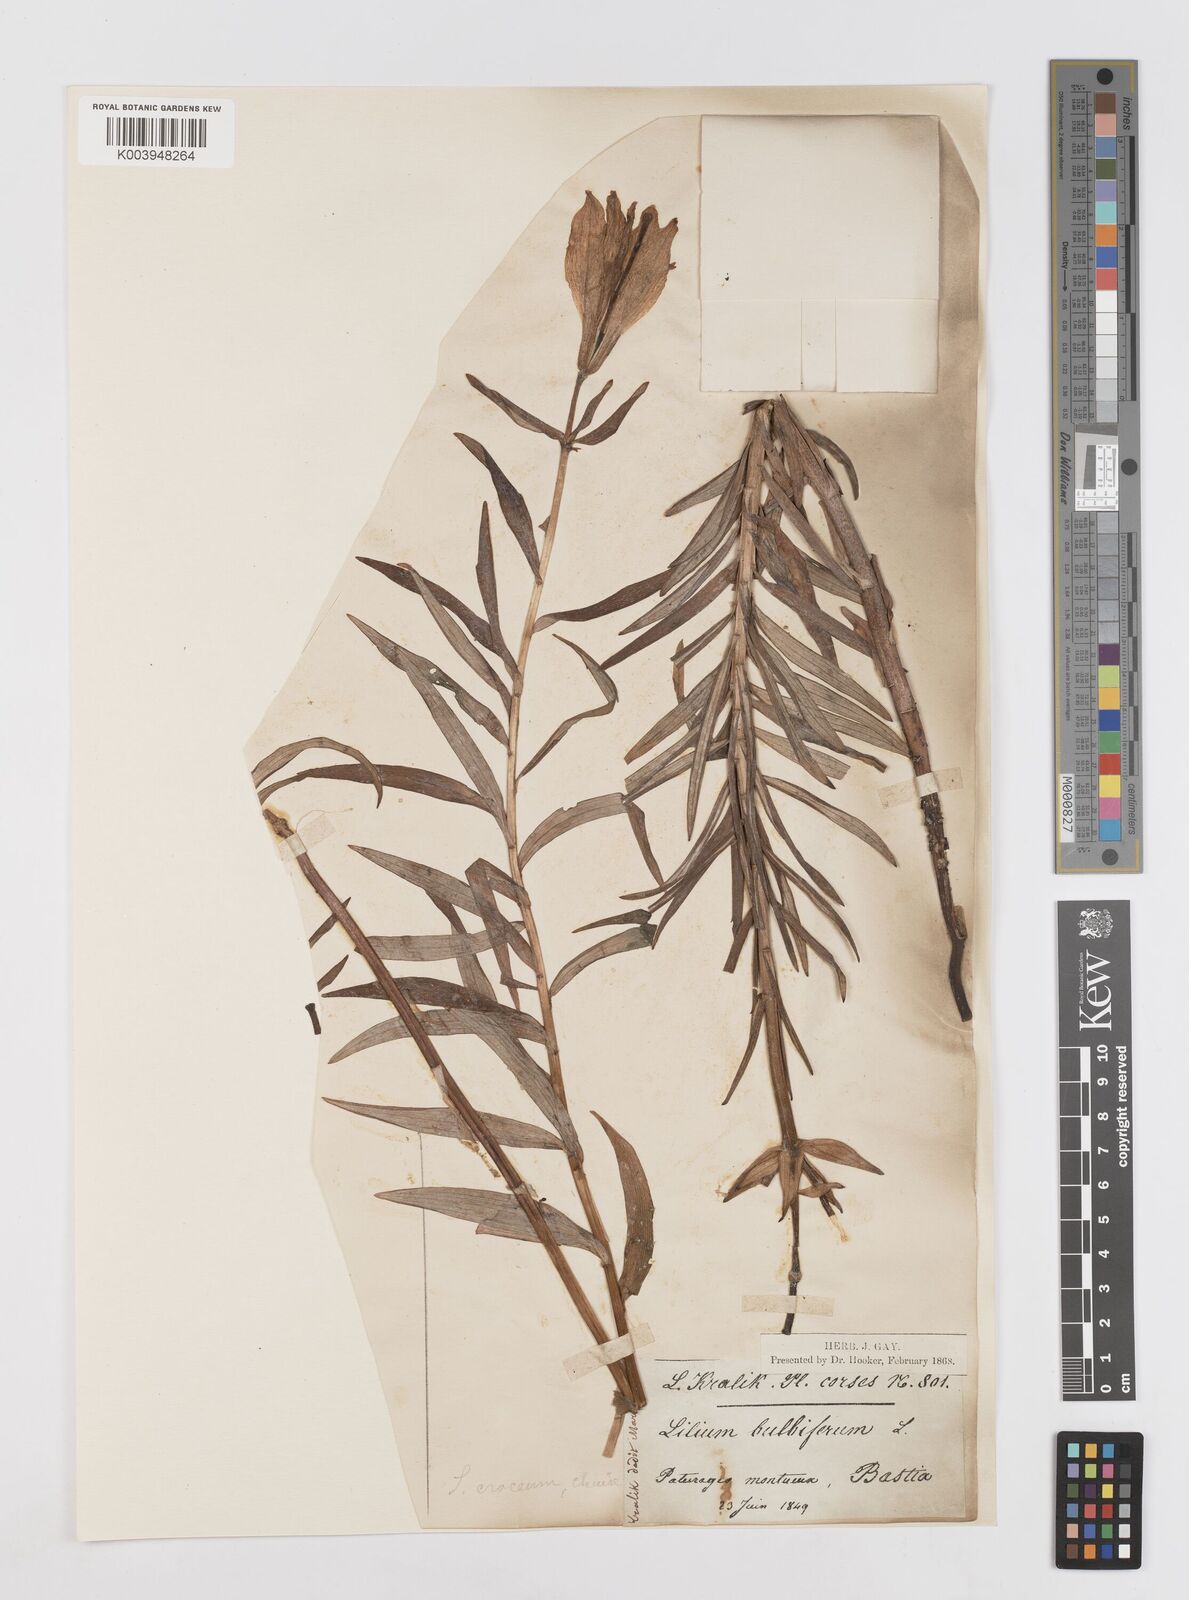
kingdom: Plantae
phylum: Tracheophyta
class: Liliopsida
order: Liliales
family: Liliaceae
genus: Lilium
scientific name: Lilium bulbiferum
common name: Orange lily
